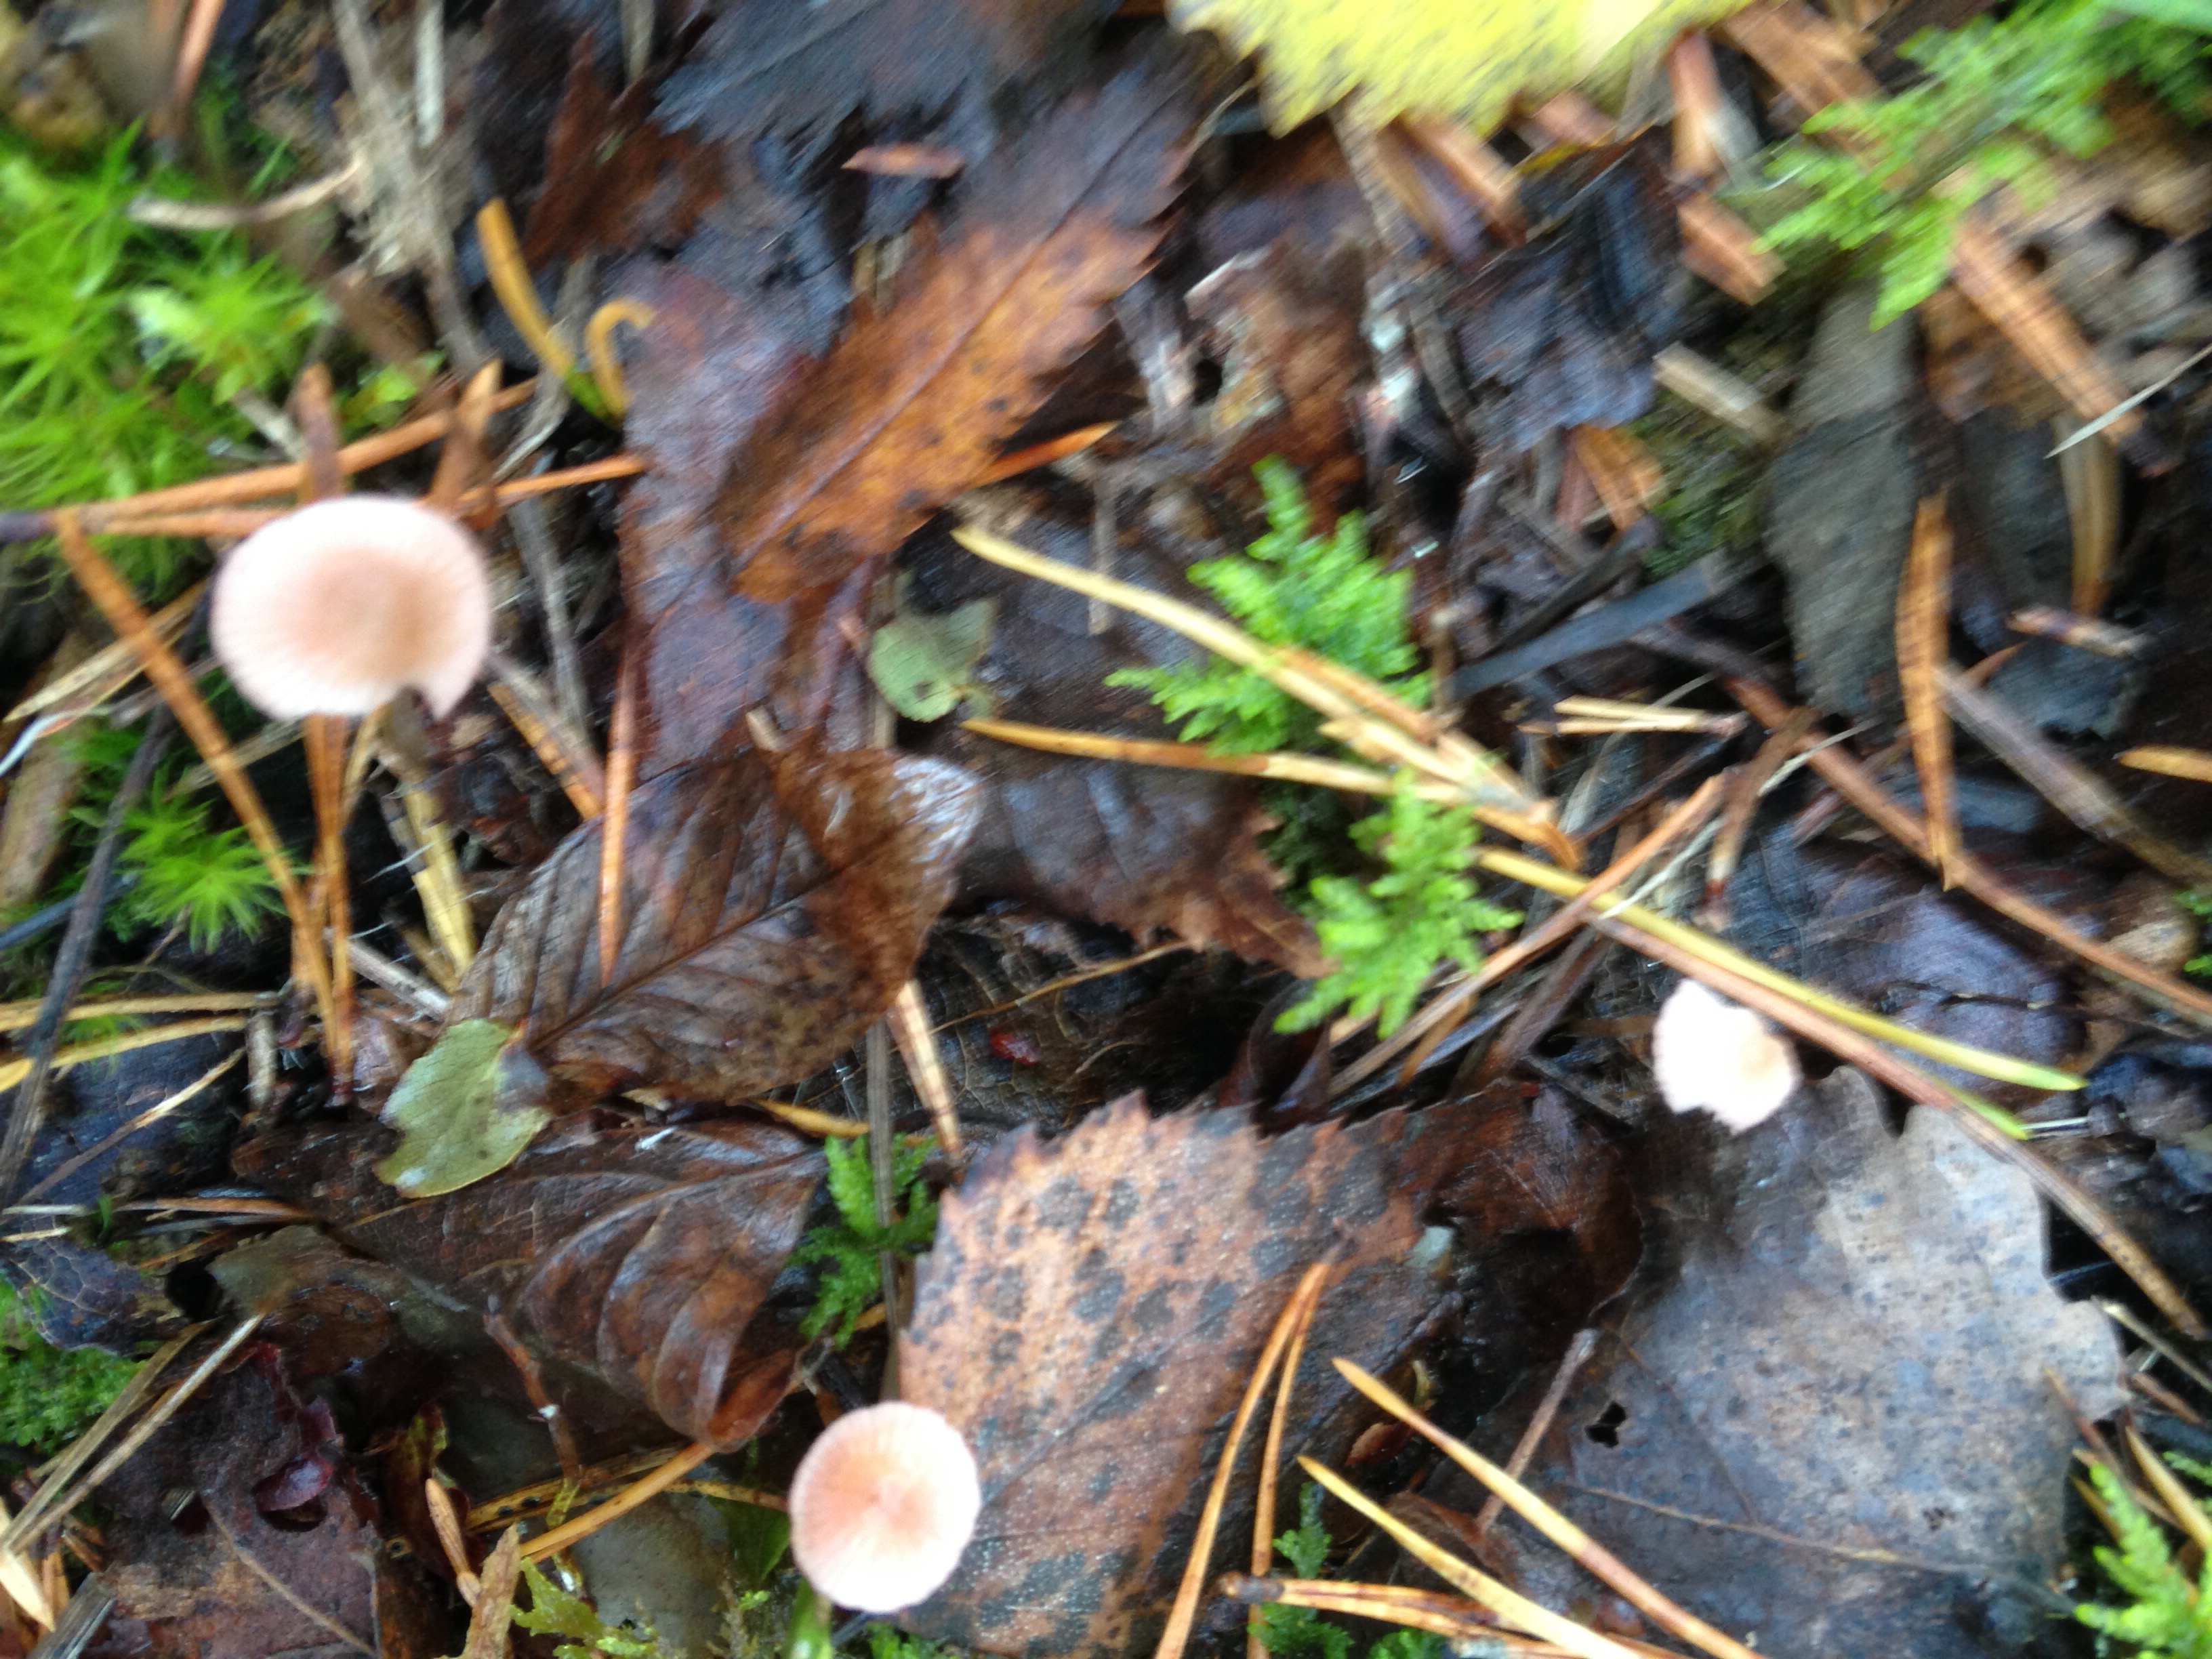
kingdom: Fungi
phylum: Basidiomycota
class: Agaricomycetes
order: Agaricales
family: Mycenaceae
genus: Mycena
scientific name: Mycena rosella
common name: Pink bonnet
